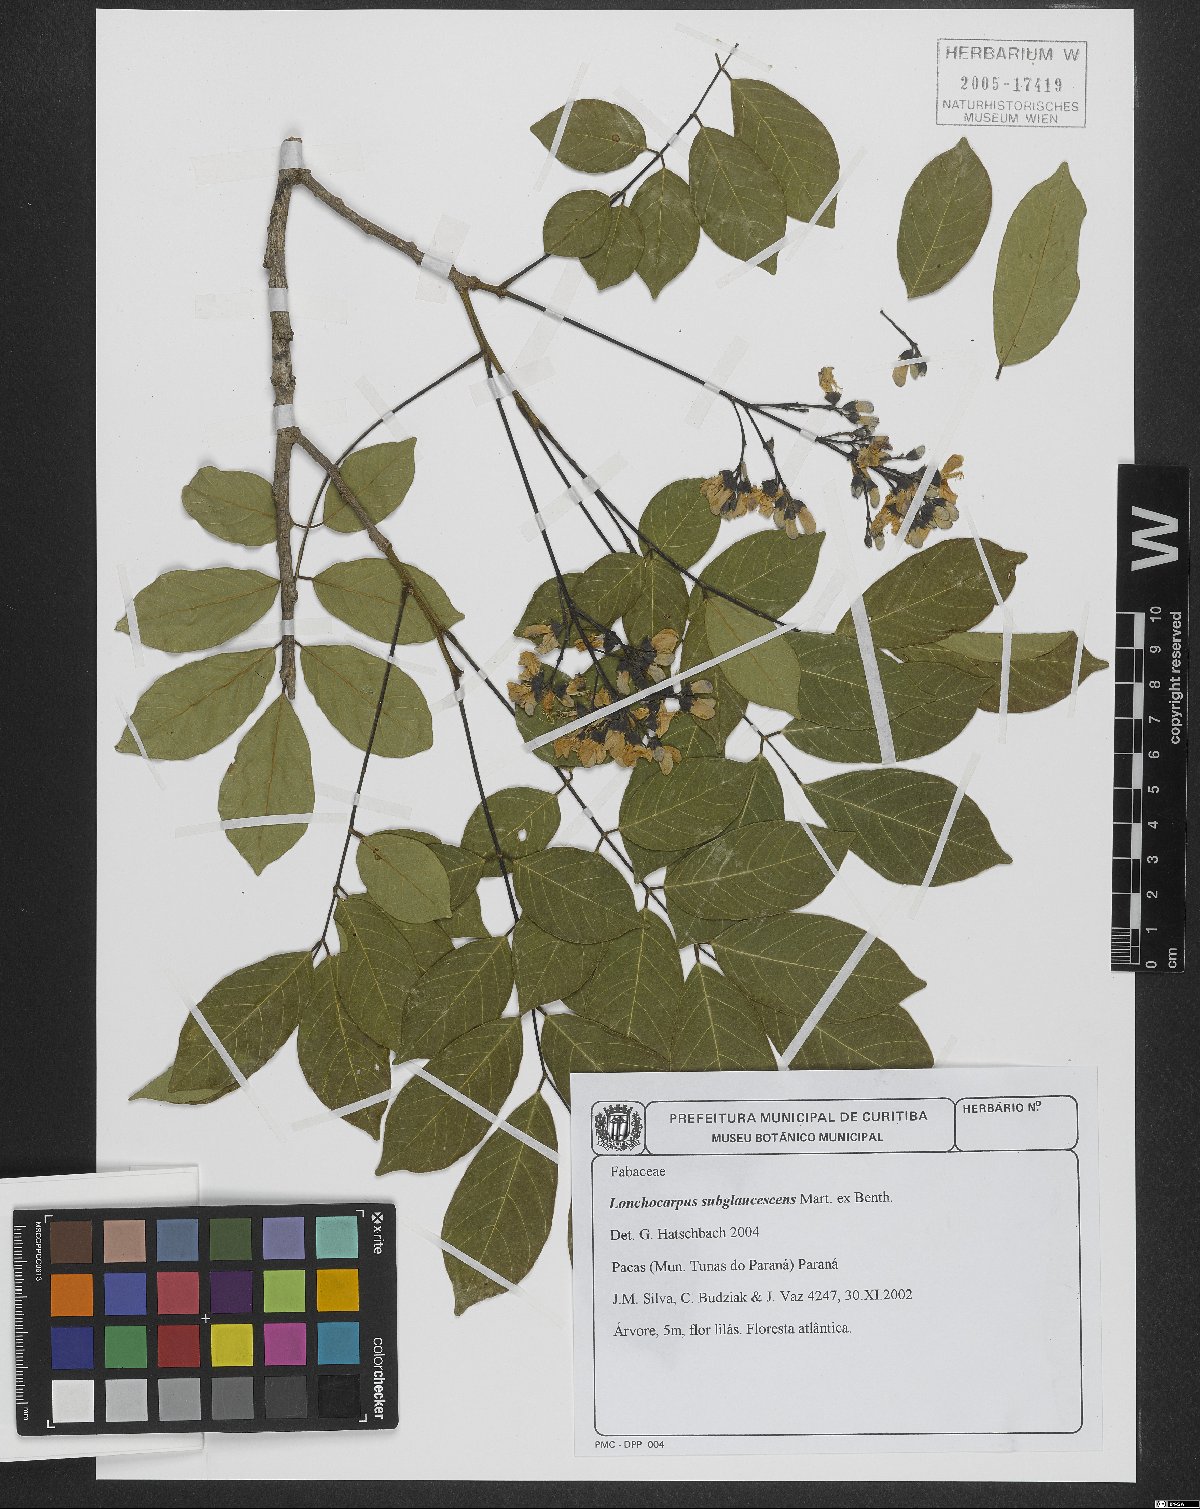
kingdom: Plantae
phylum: Tracheophyta
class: Magnoliopsida
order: Fabales
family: Fabaceae
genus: Lonchocarpus
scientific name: Lonchocarpus subglaucescens
